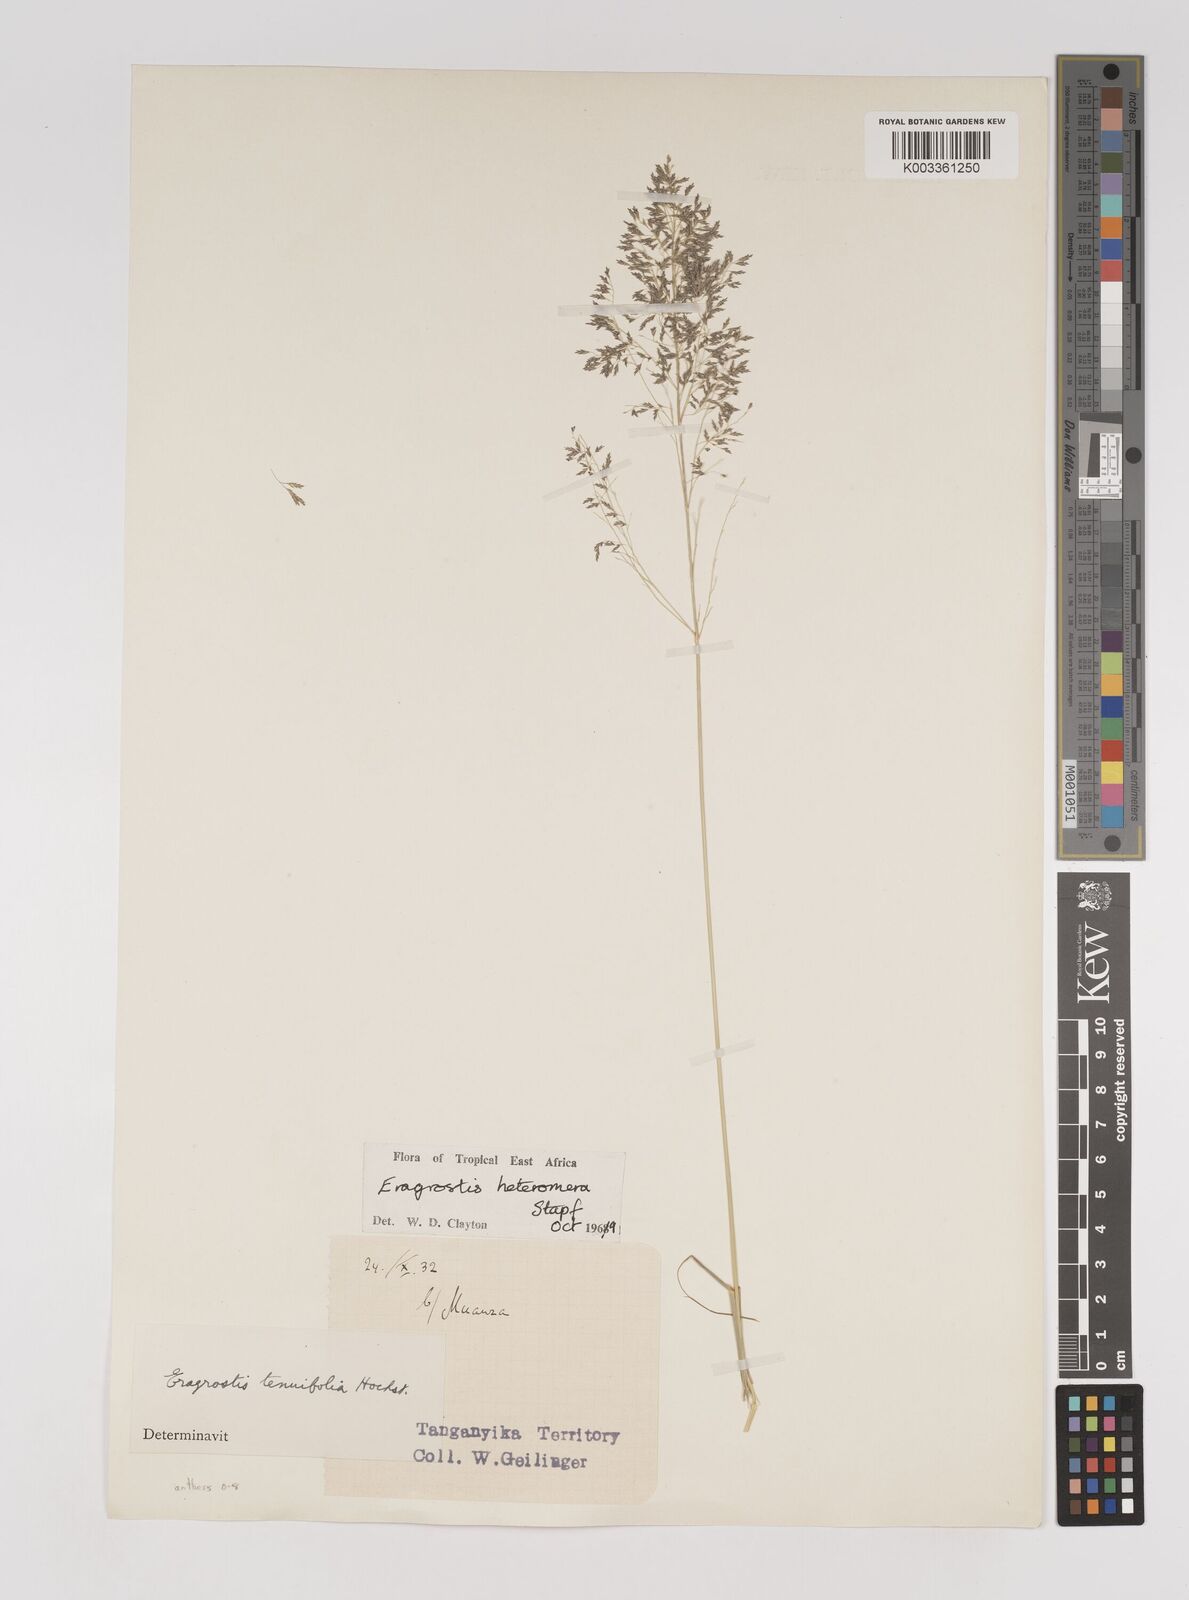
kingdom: Plantae
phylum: Tracheophyta
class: Liliopsida
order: Poales
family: Poaceae
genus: Eragrostis
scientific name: Eragrostis heteromera
